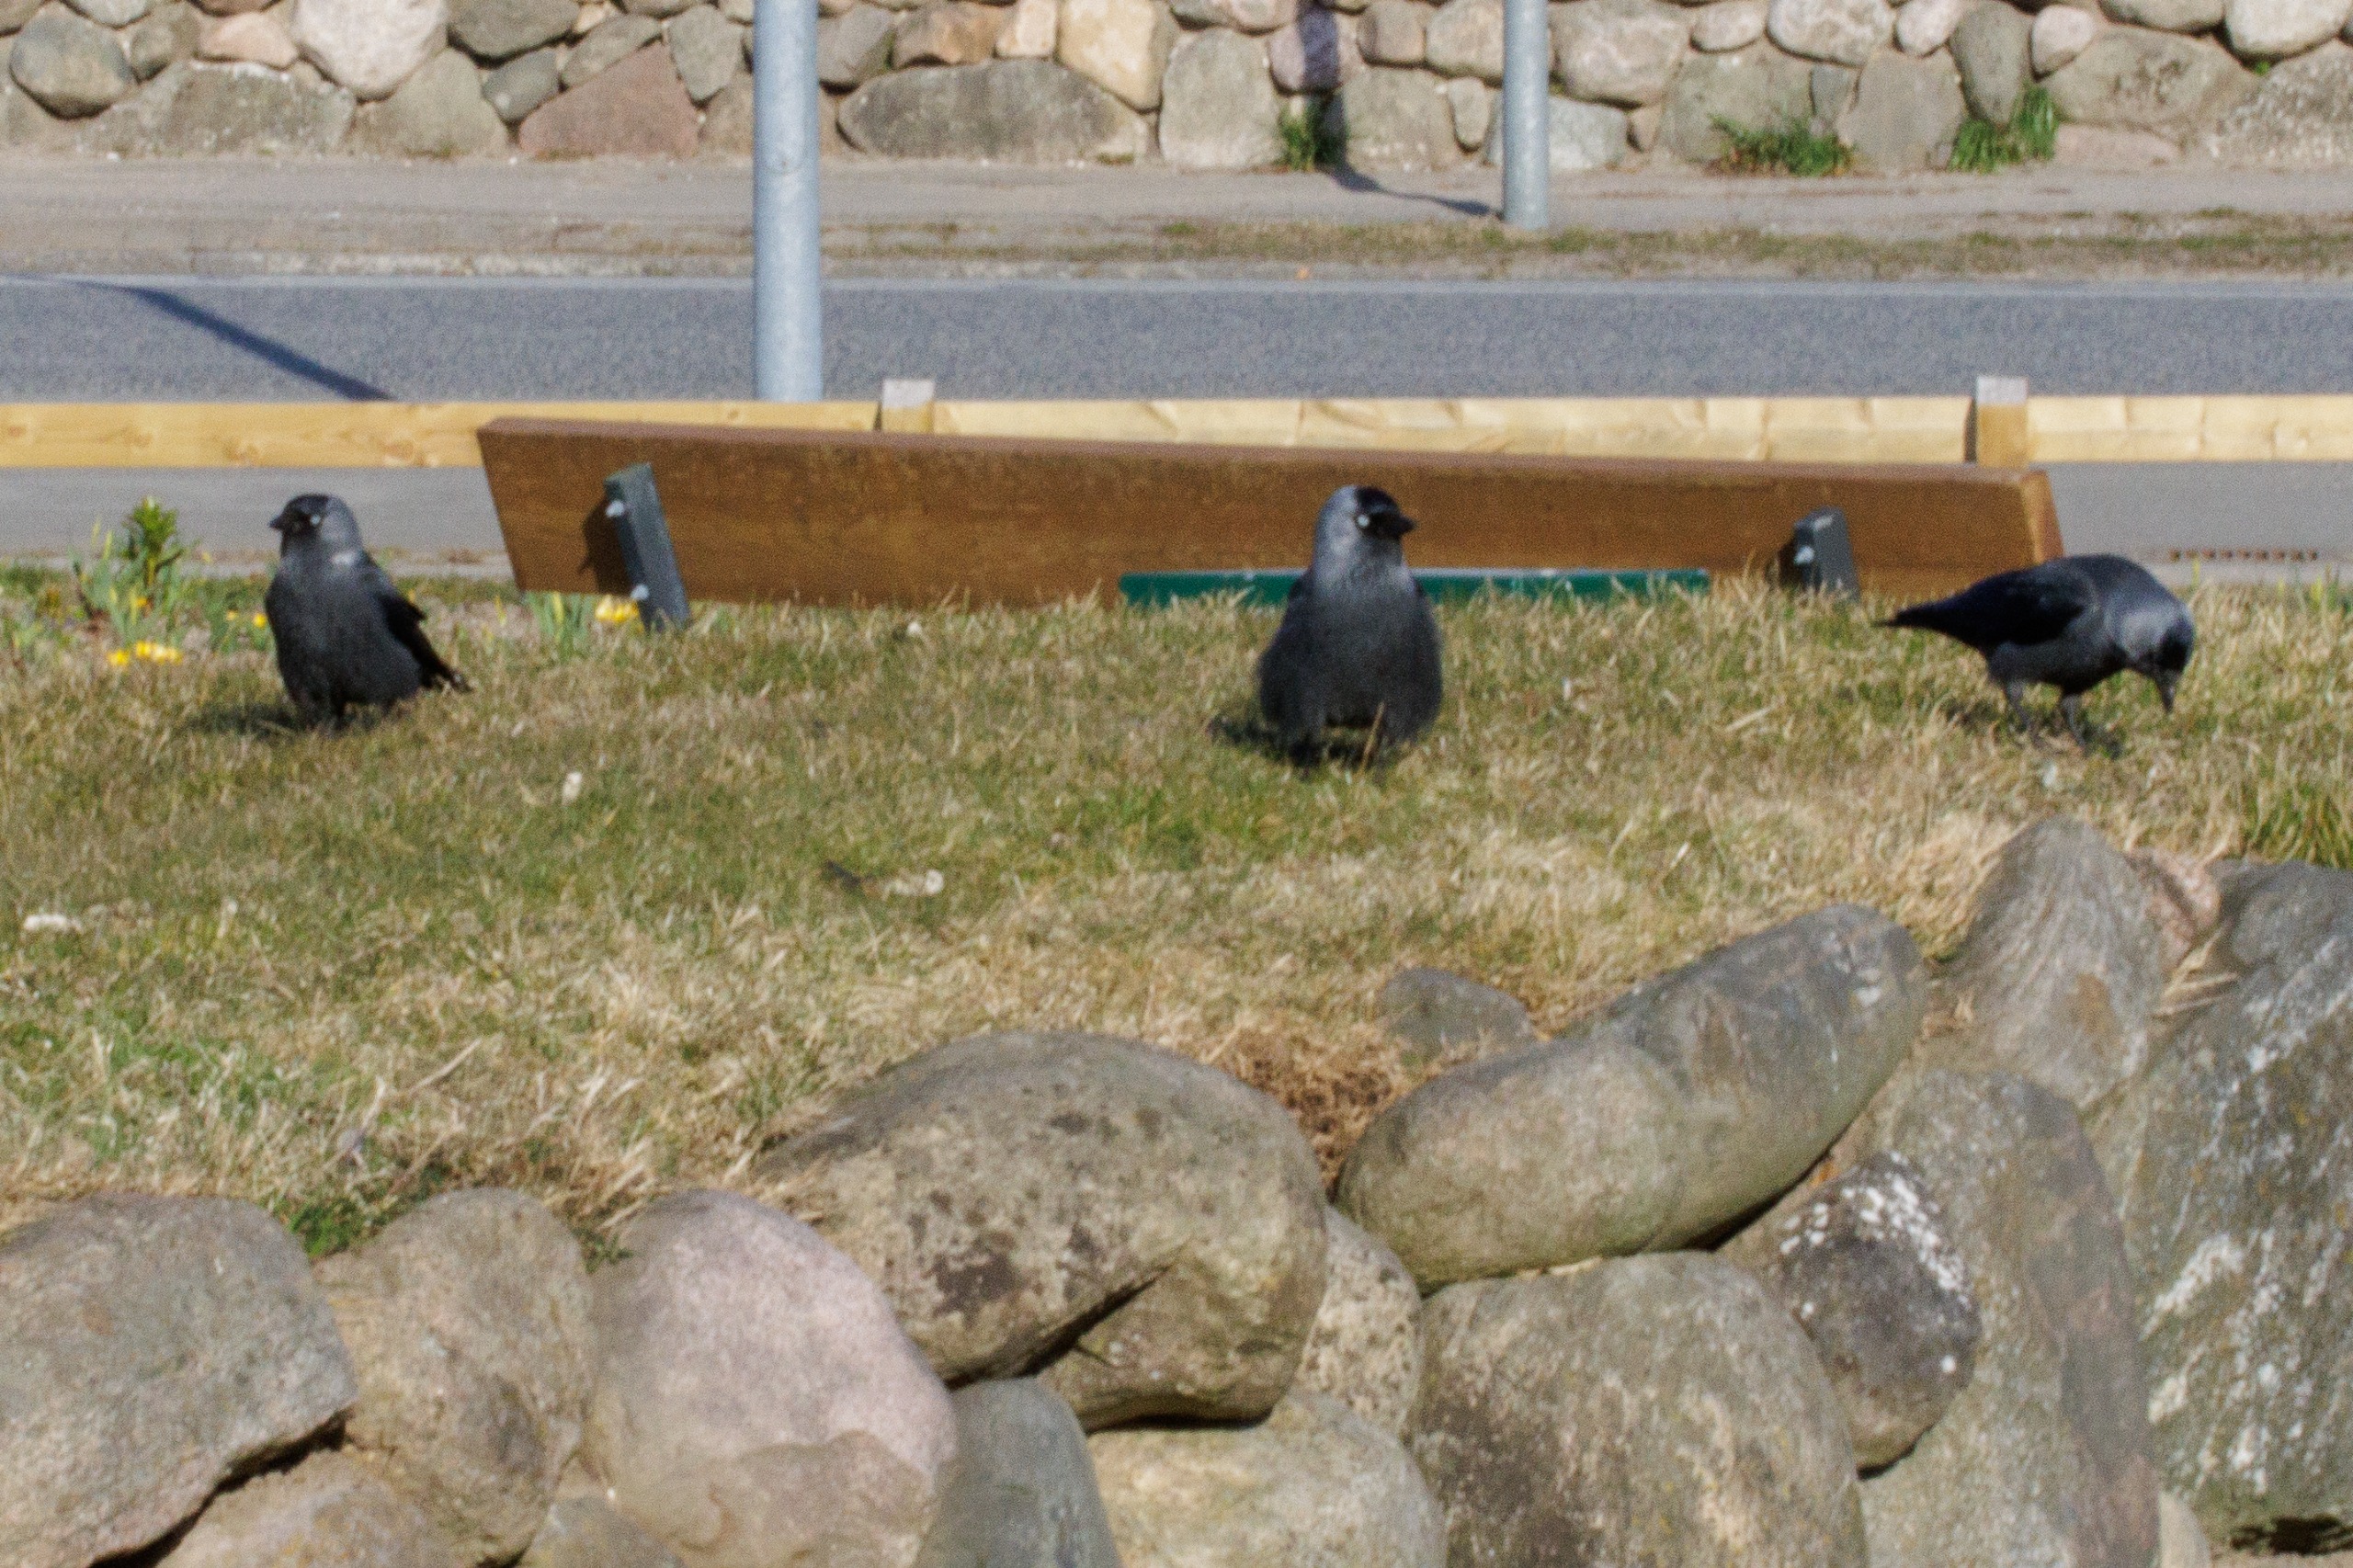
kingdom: Animalia
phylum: Chordata
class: Aves
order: Passeriformes
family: Corvidae
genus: Coloeus
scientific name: Coloeus monedula
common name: Allike
